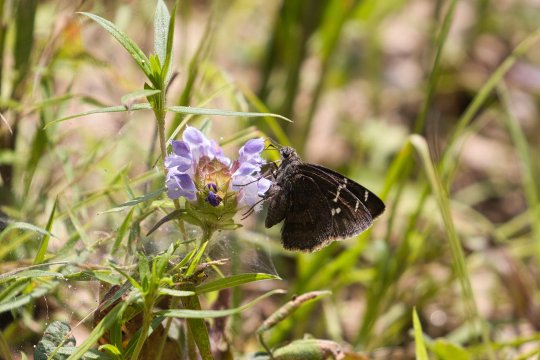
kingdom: Animalia
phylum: Arthropoda
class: Insecta
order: Lepidoptera
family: Hesperiidae
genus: Thorybes
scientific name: Thorybes
